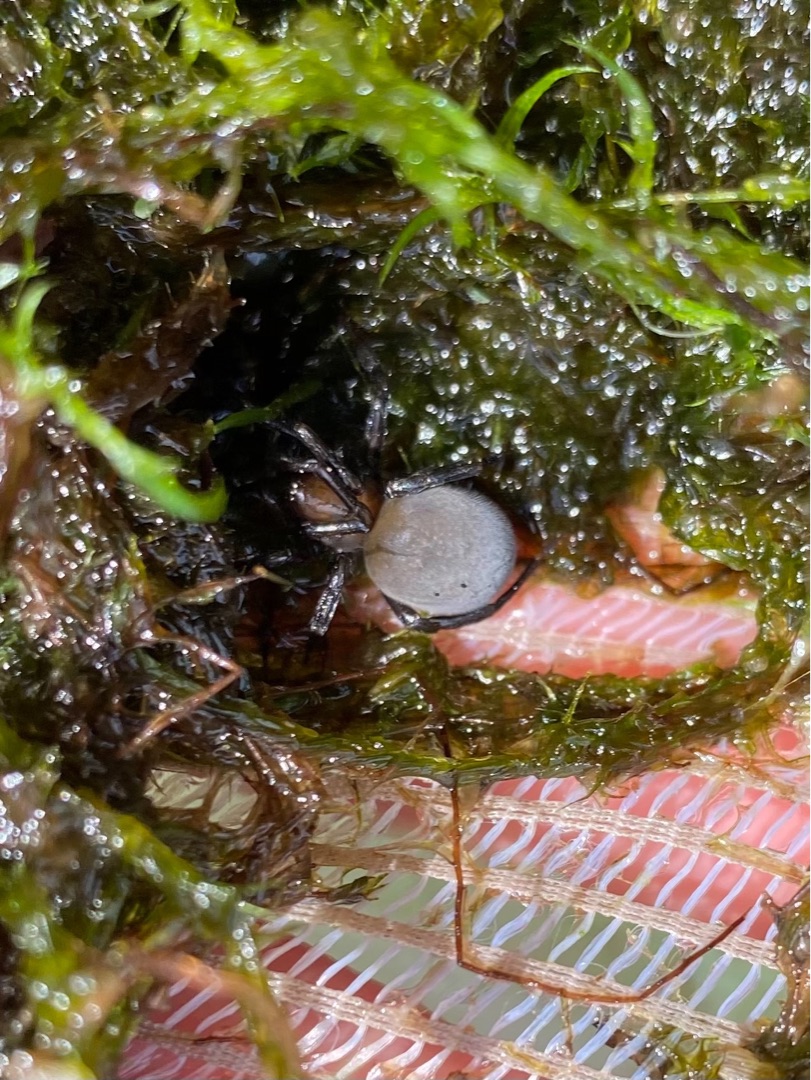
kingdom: Animalia
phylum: Arthropoda
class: Arachnida
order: Araneae
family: Dictynidae
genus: Argyroneta
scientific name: Argyroneta aquatica
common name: Vandedderkop
